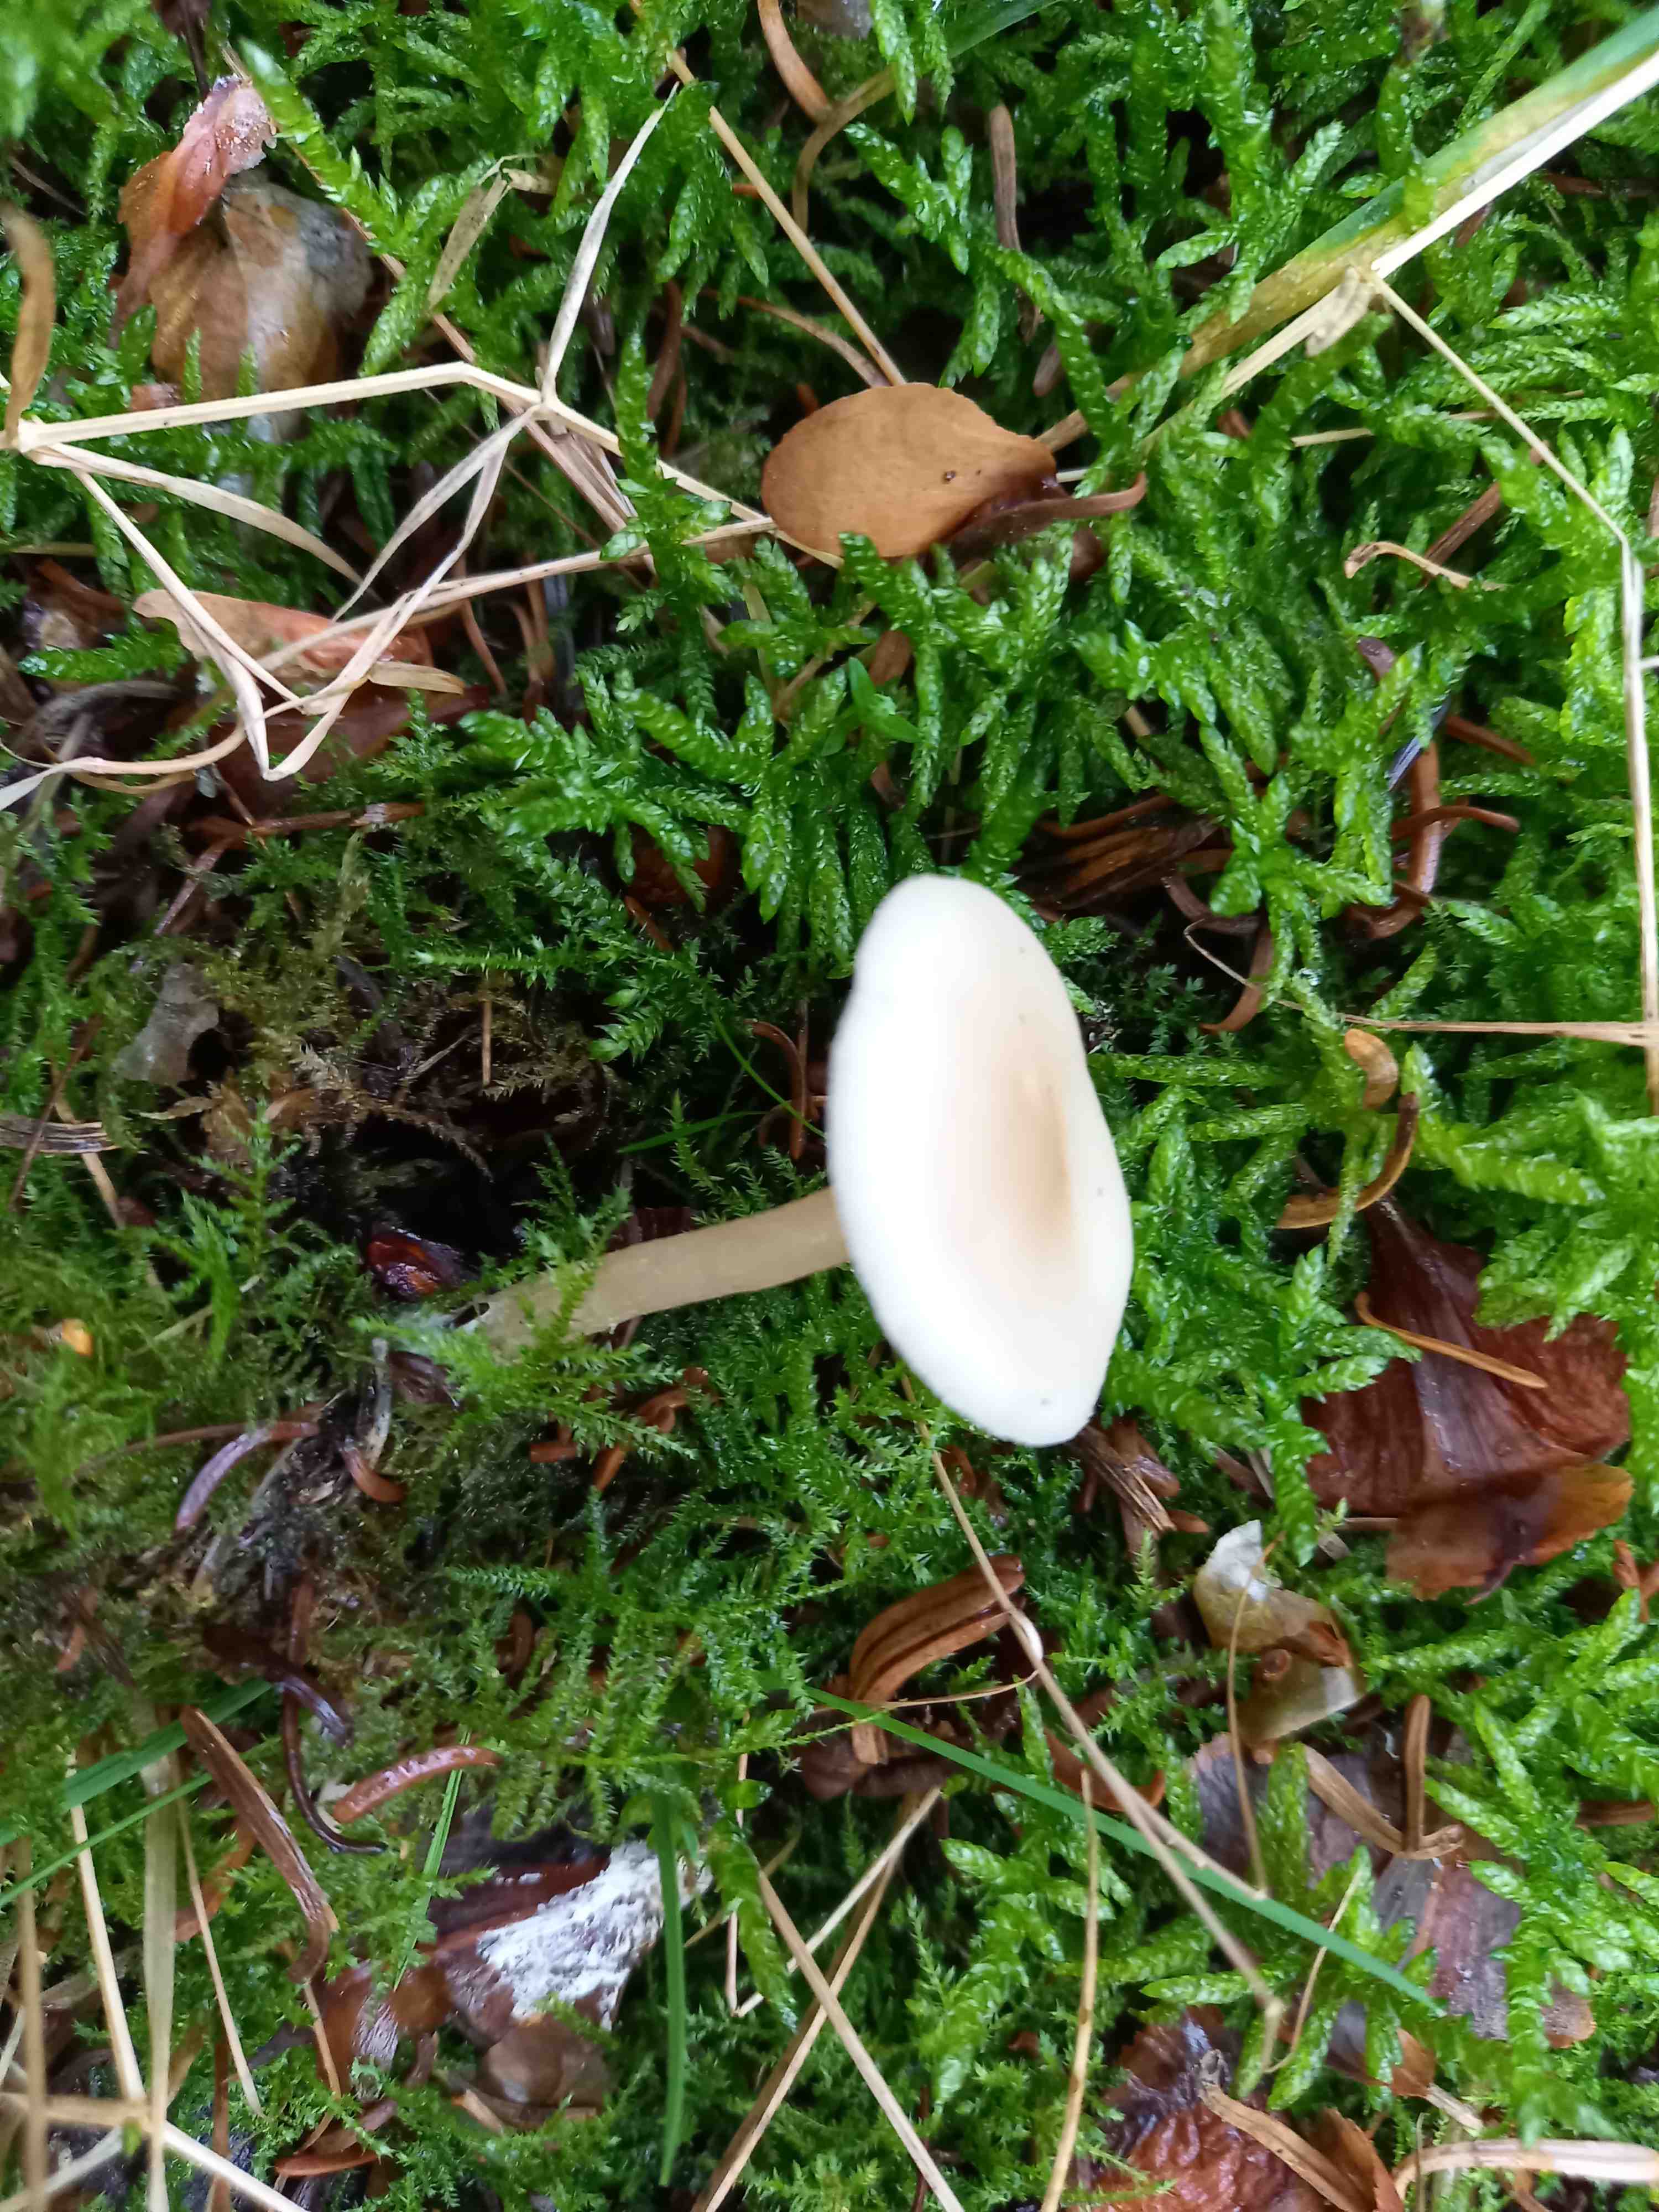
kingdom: Fungi
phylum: Basidiomycota
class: Agaricomycetes
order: Agaricales
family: Tricholomataceae
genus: Clitocybe
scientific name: Clitocybe fragrans
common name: vellugtende tragthat
